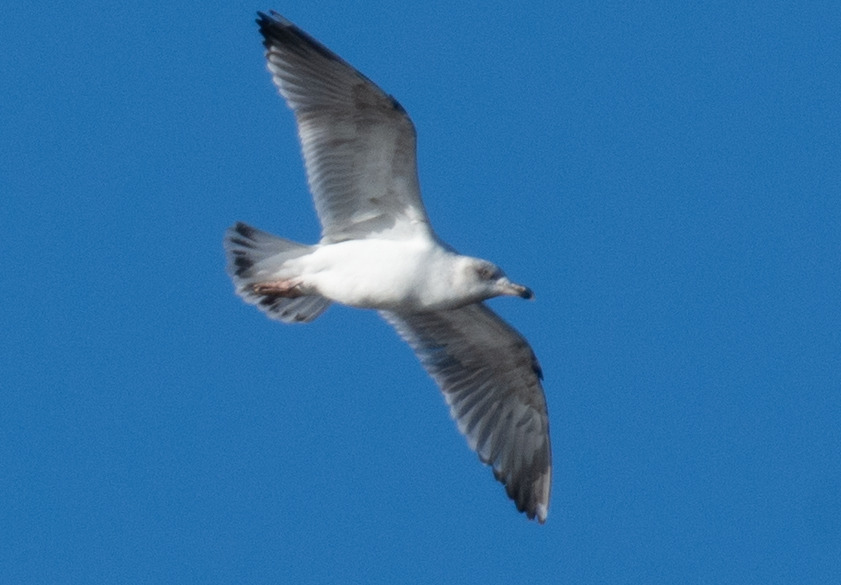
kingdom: Animalia
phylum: Chordata
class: Aves
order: Charadriiformes
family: Laridae
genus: Larus
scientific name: Larus argentatus
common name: Sølvmåge
